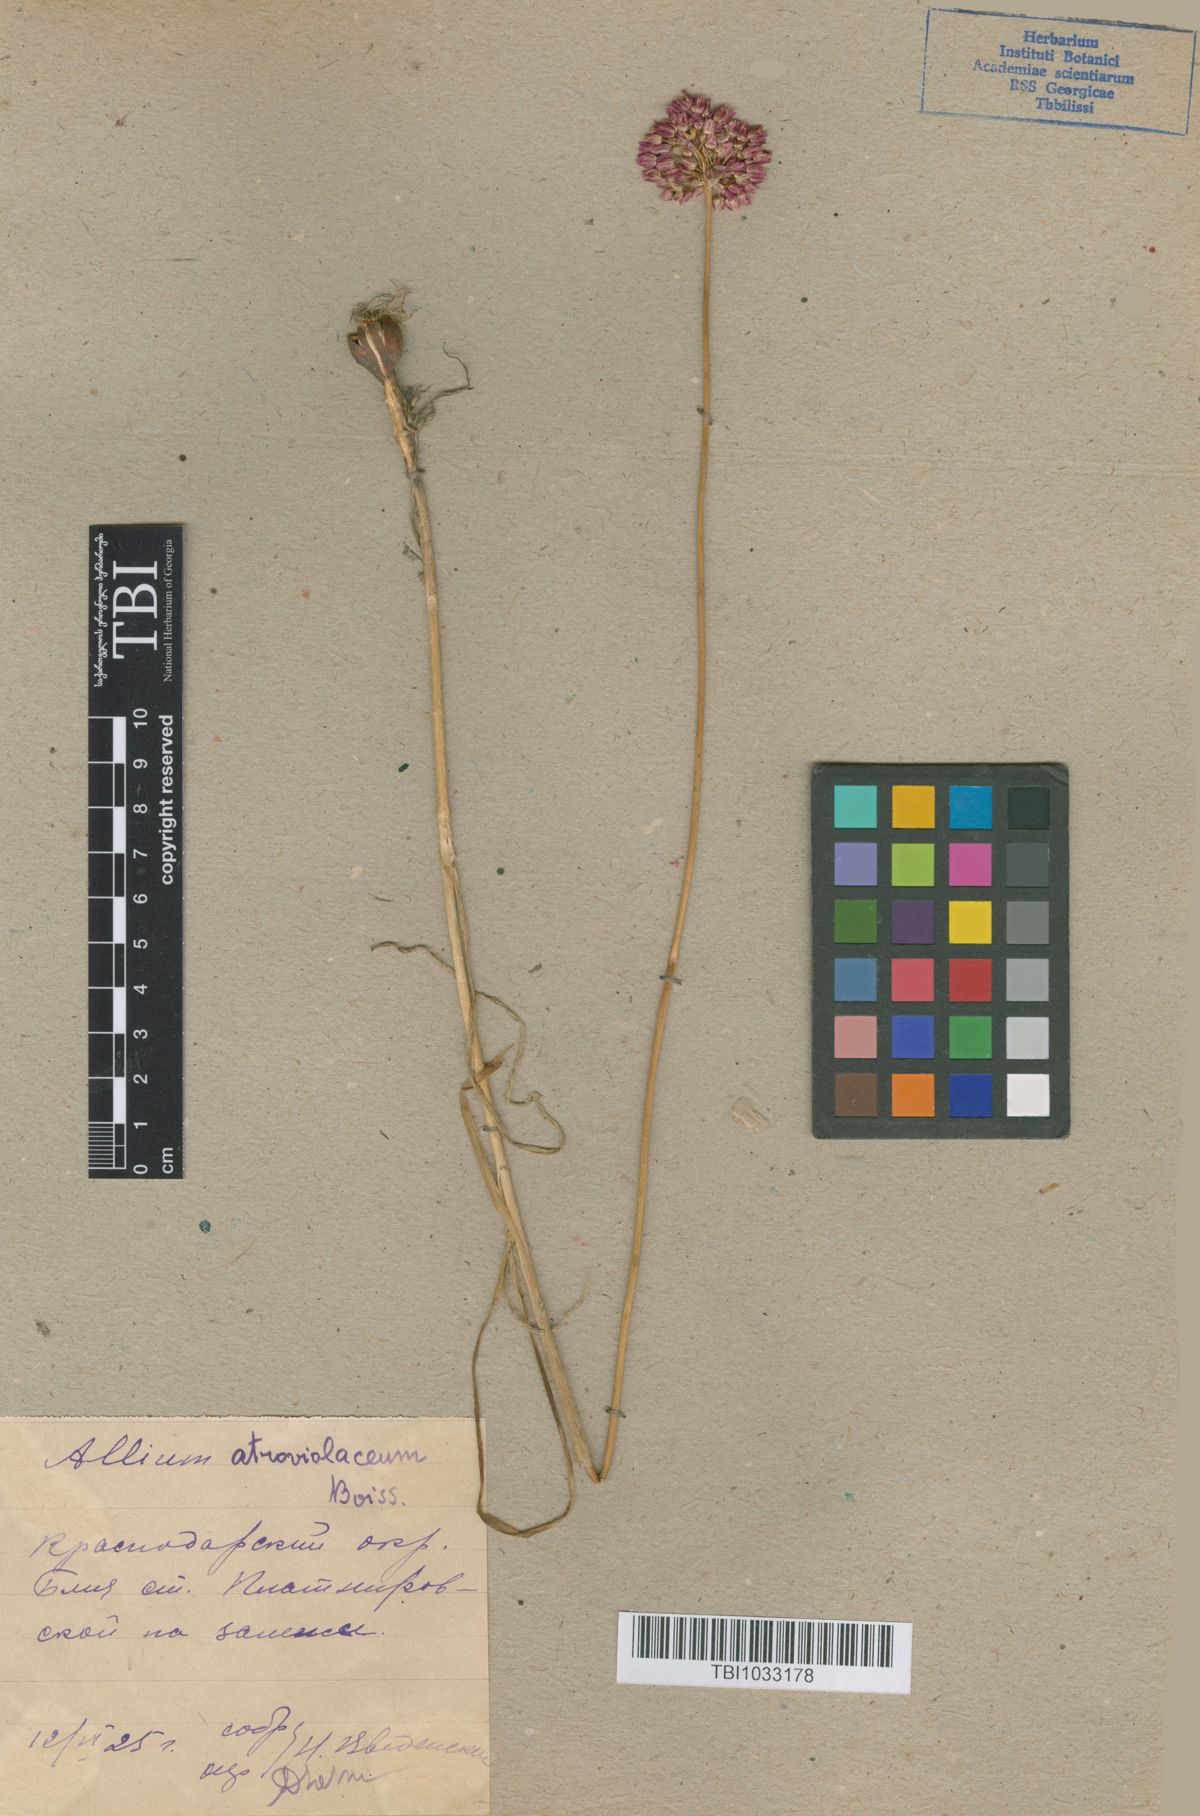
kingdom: Plantae
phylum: Tracheophyta
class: Liliopsida
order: Asparagales
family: Amaryllidaceae
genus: Allium
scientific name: Allium atroviolaceum
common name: Broadleaf wild leek
